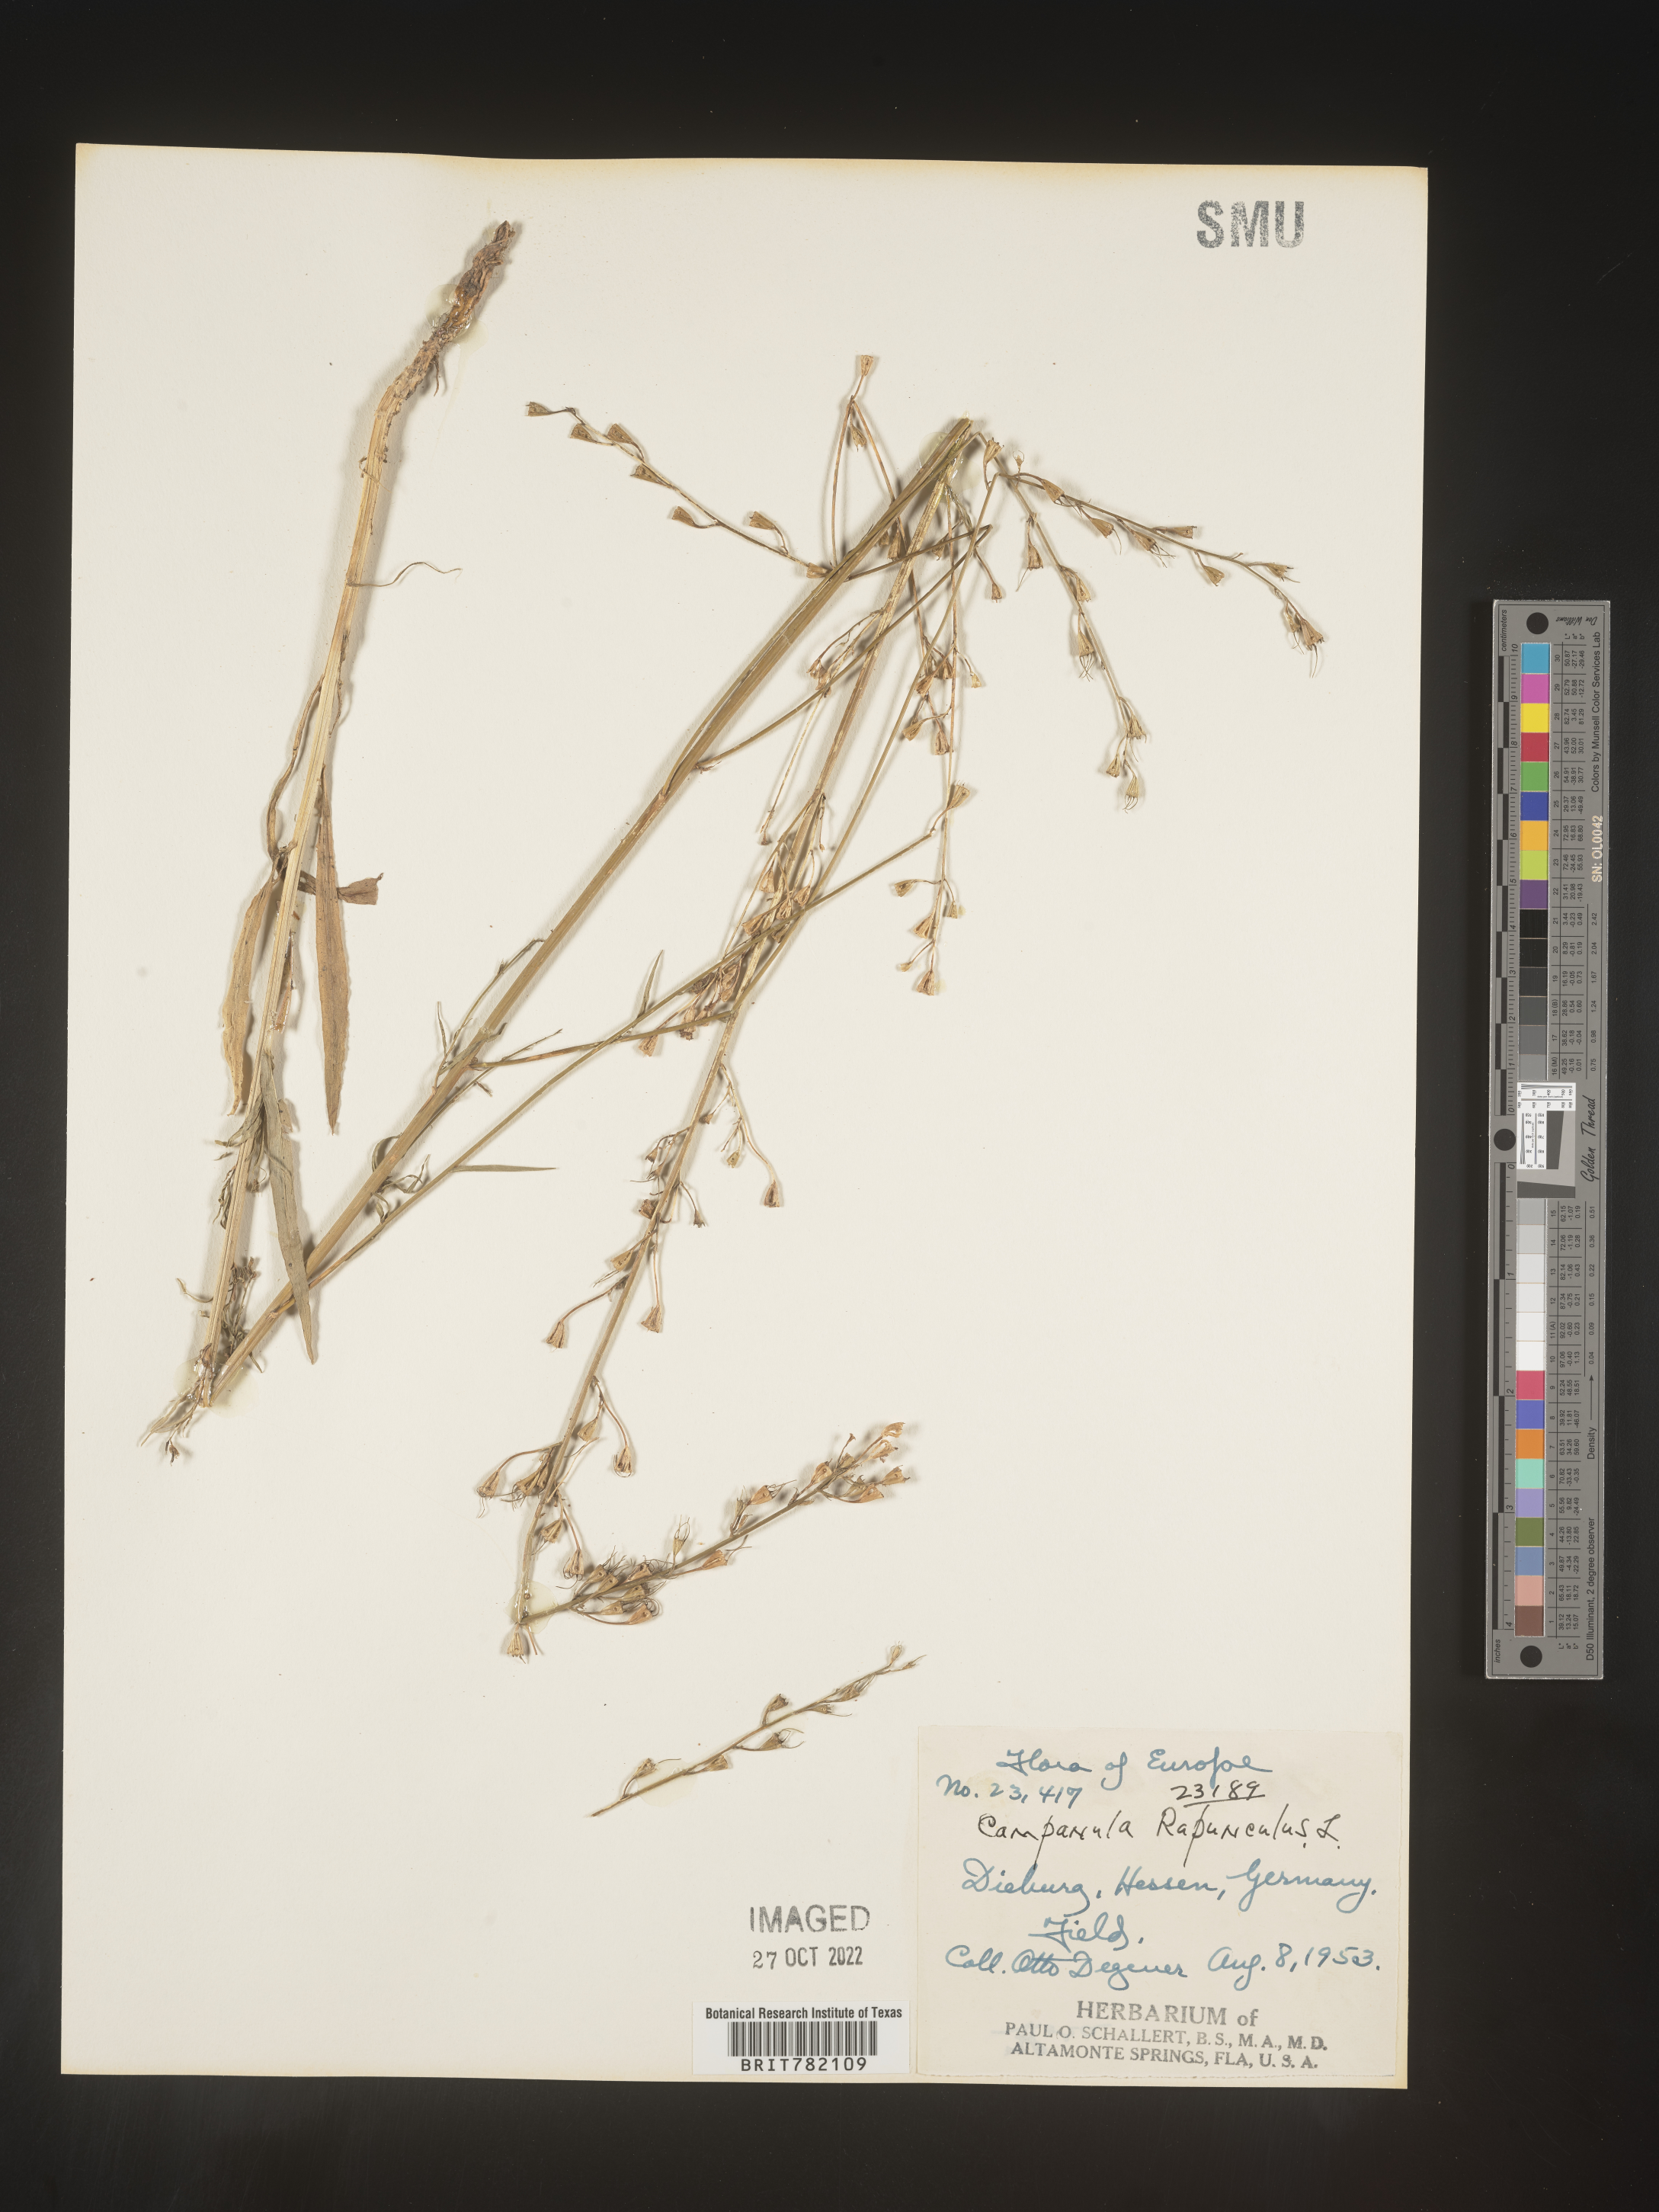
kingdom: Plantae
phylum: Tracheophyta
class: Magnoliopsida
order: Asterales
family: Campanulaceae
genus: Campanula
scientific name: Campanula
